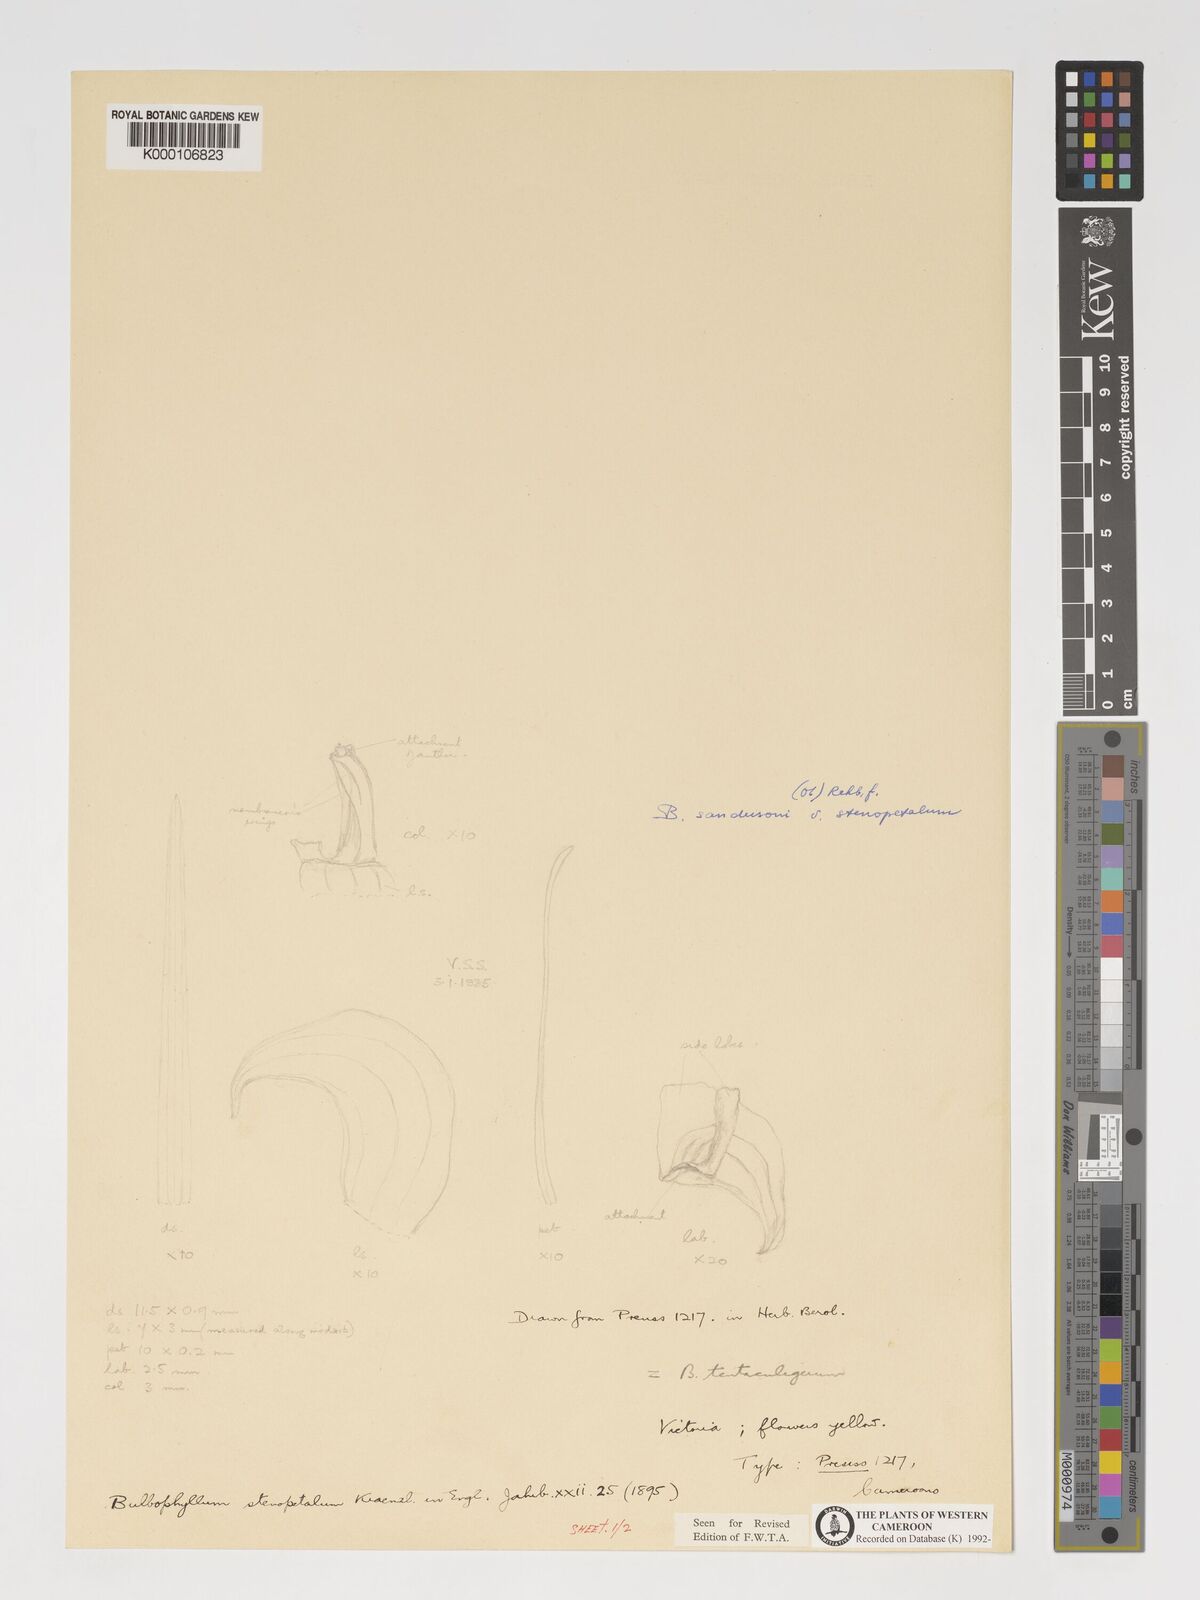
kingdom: Plantae
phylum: Tracheophyta
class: Liliopsida
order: Asparagales
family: Orchidaceae
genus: Bulbophyllum
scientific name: Bulbophyllum sandersonii
